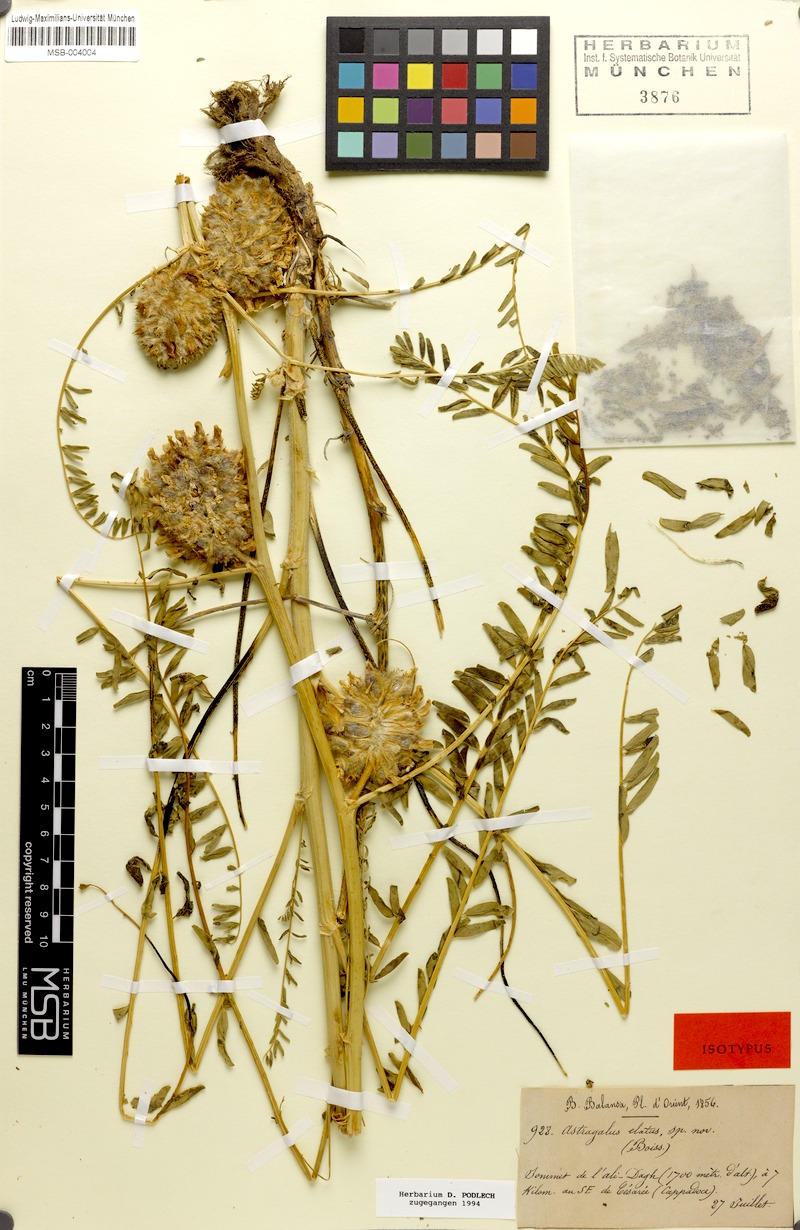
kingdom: Plantae
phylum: Tracheophyta
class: Magnoliopsida
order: Fabales
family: Fabaceae
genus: Astragalus
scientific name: Astragalus elatus
